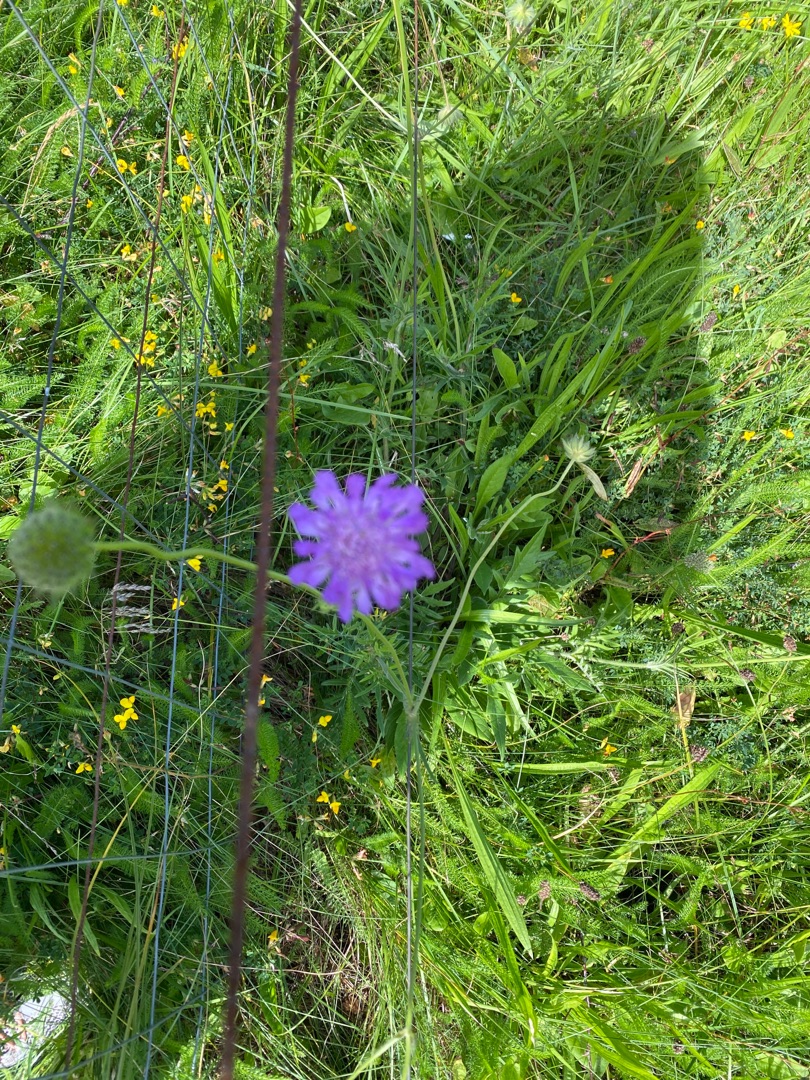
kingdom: Plantae
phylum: Tracheophyta
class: Magnoliopsida
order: Dipsacales
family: Caprifoliaceae
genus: Knautia
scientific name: Knautia arvensis
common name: Blåhat
